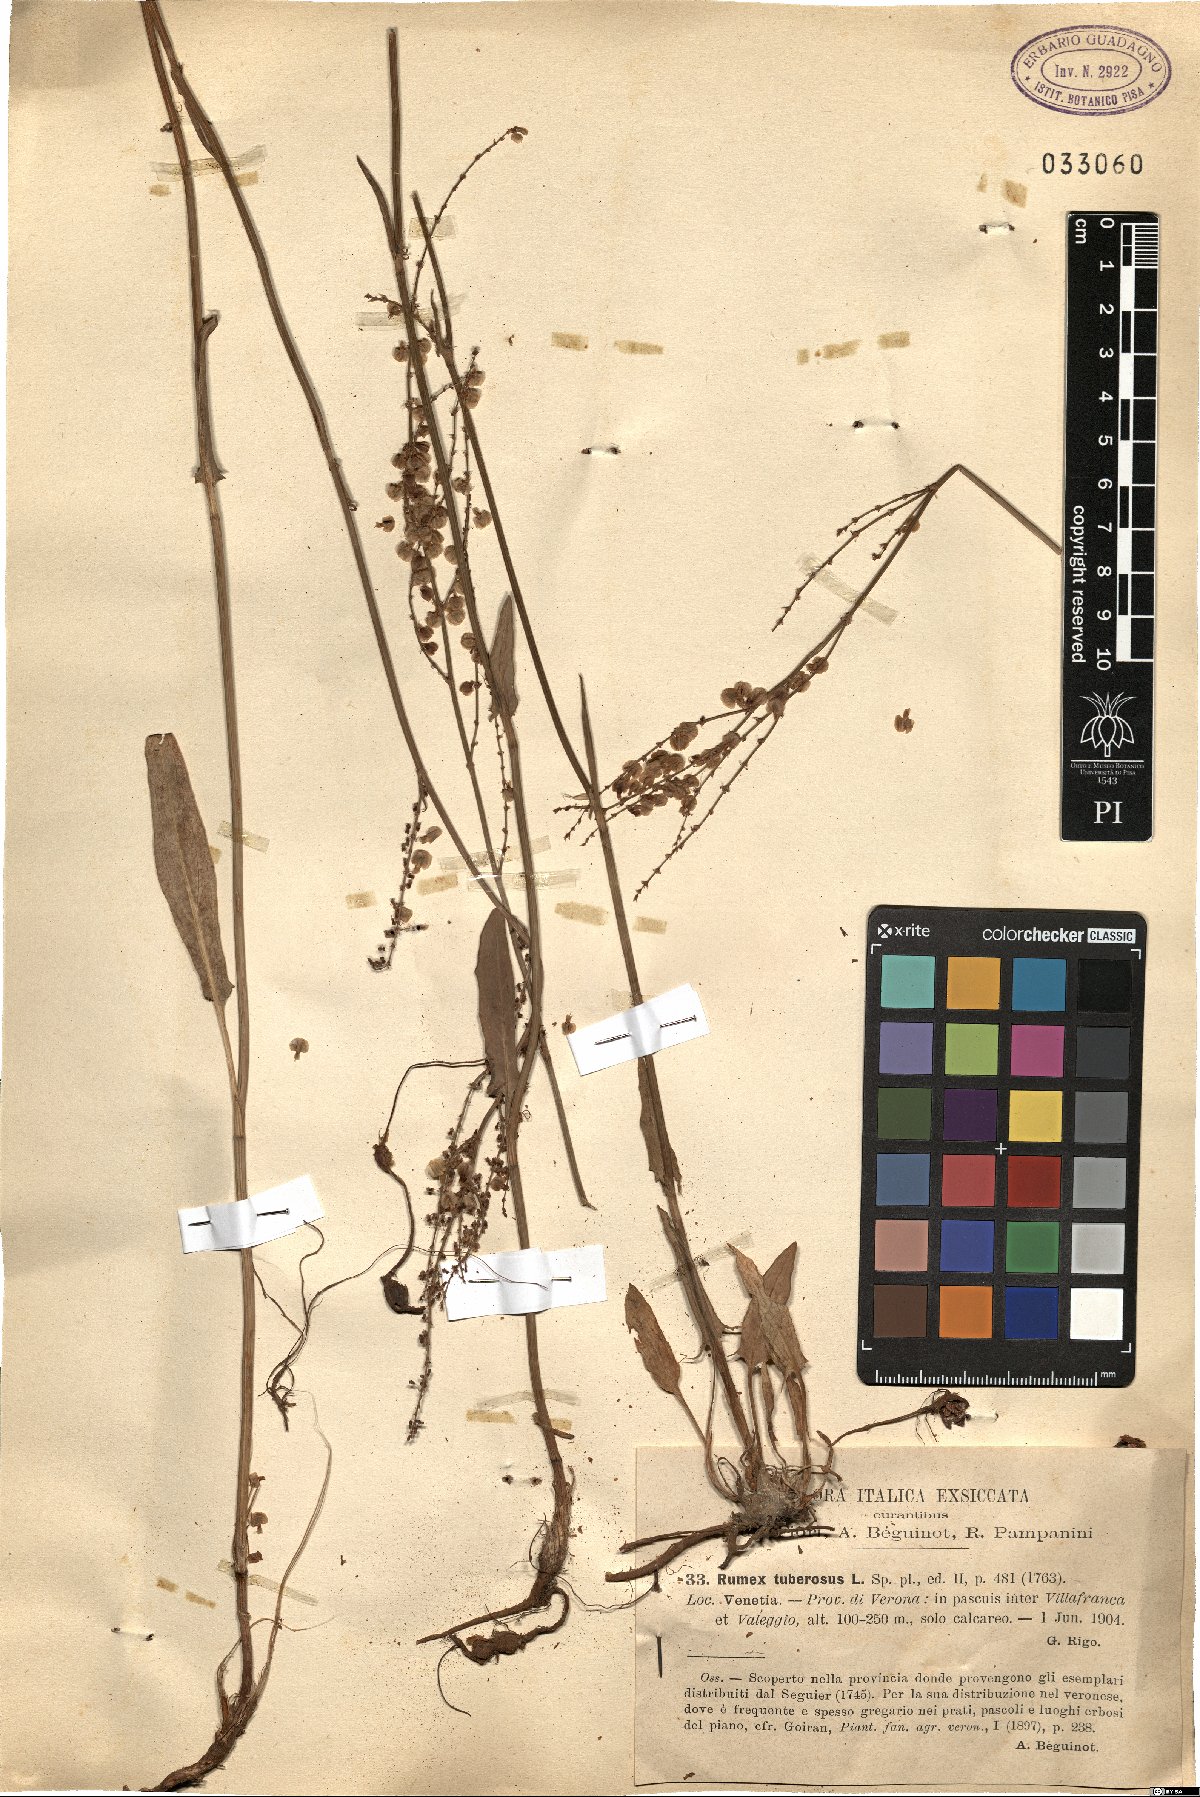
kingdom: Plantae
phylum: Tracheophyta
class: Magnoliopsida
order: Caryophyllales
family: Polygonaceae
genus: Rumex
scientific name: Rumex tuberosus
